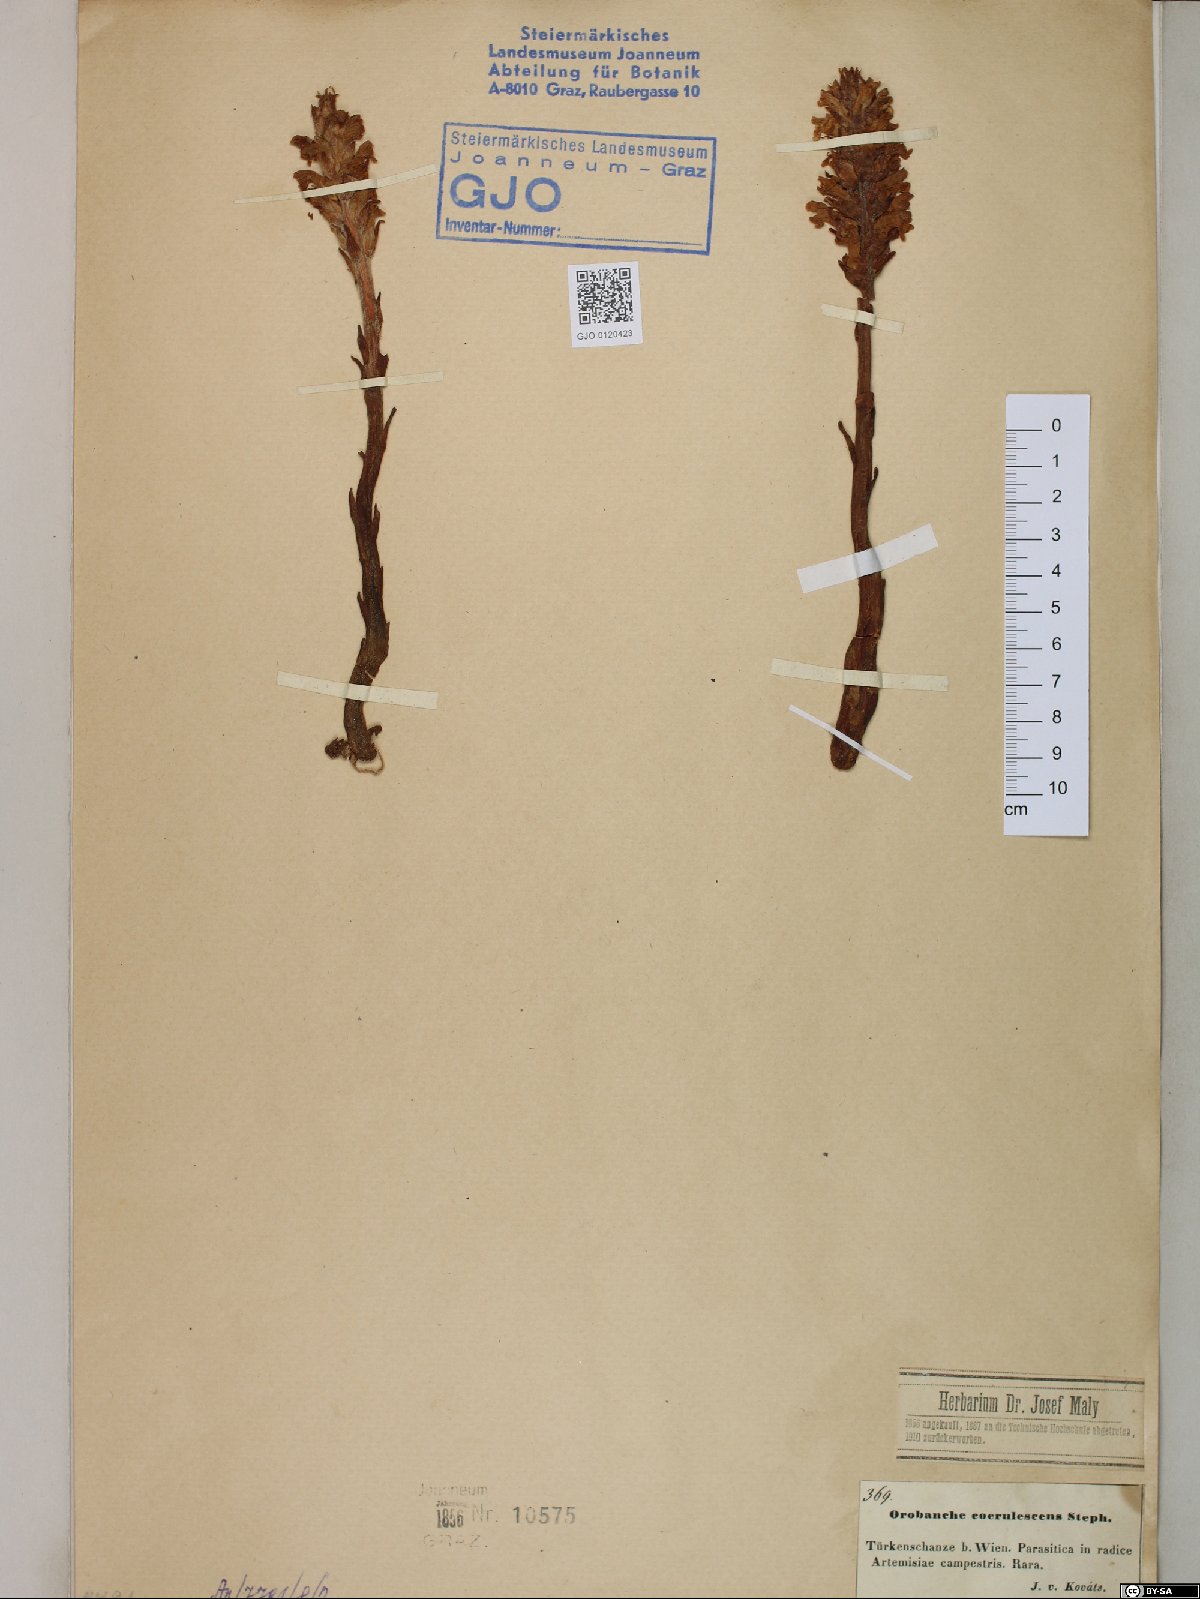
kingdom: Plantae
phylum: Tracheophyta
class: Magnoliopsida
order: Lamiales
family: Orobanchaceae
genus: Orobanche
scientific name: Orobanche coerulescens
